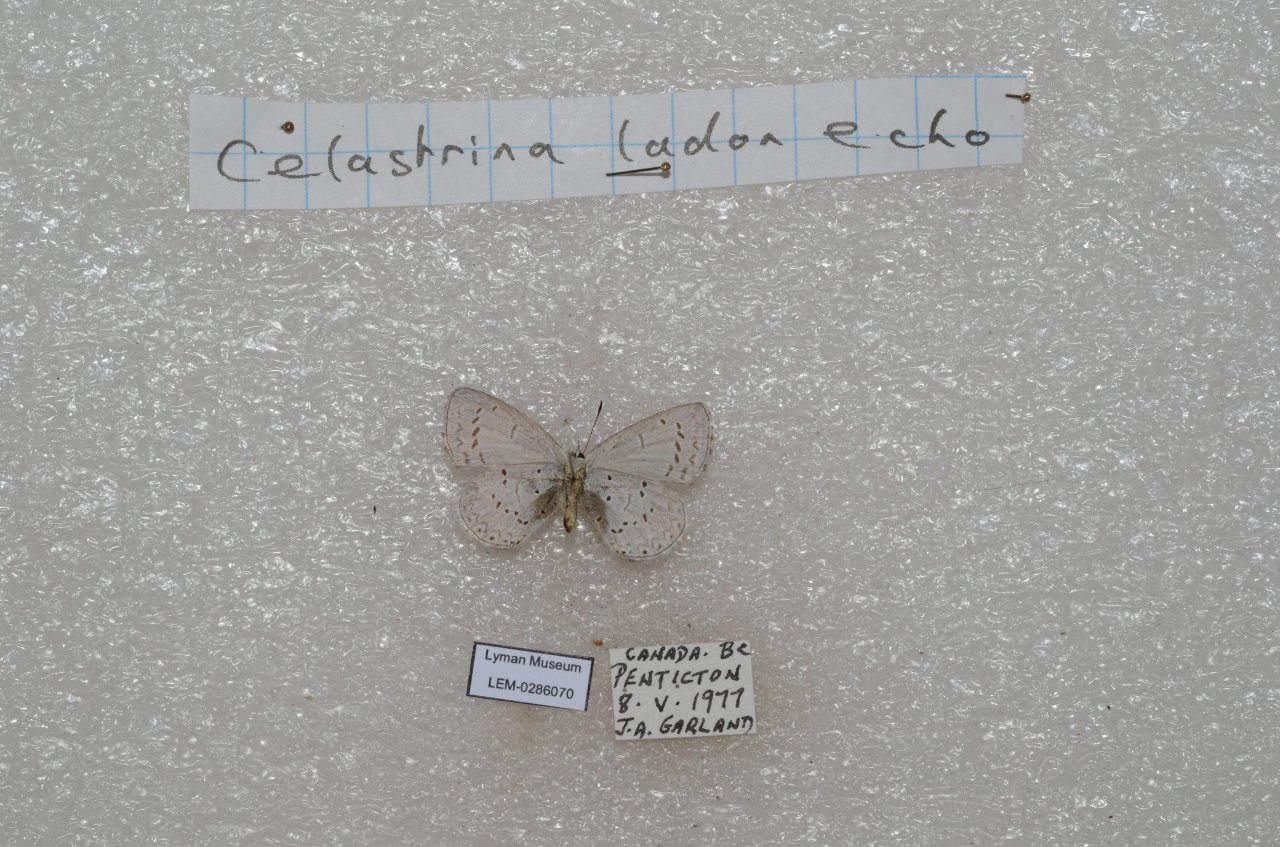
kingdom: Animalia
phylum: Arthropoda
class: Insecta
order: Lepidoptera
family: Lycaenidae
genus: Celastrina
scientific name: Celastrina
